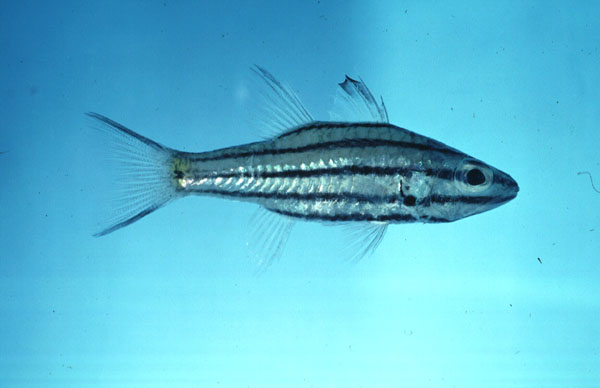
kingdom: Animalia
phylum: Chordata
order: Perciformes
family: Apogonidae
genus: Cheilodipterus
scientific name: Cheilodipterus quinquelineatus
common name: Five-lined cardinalfish
